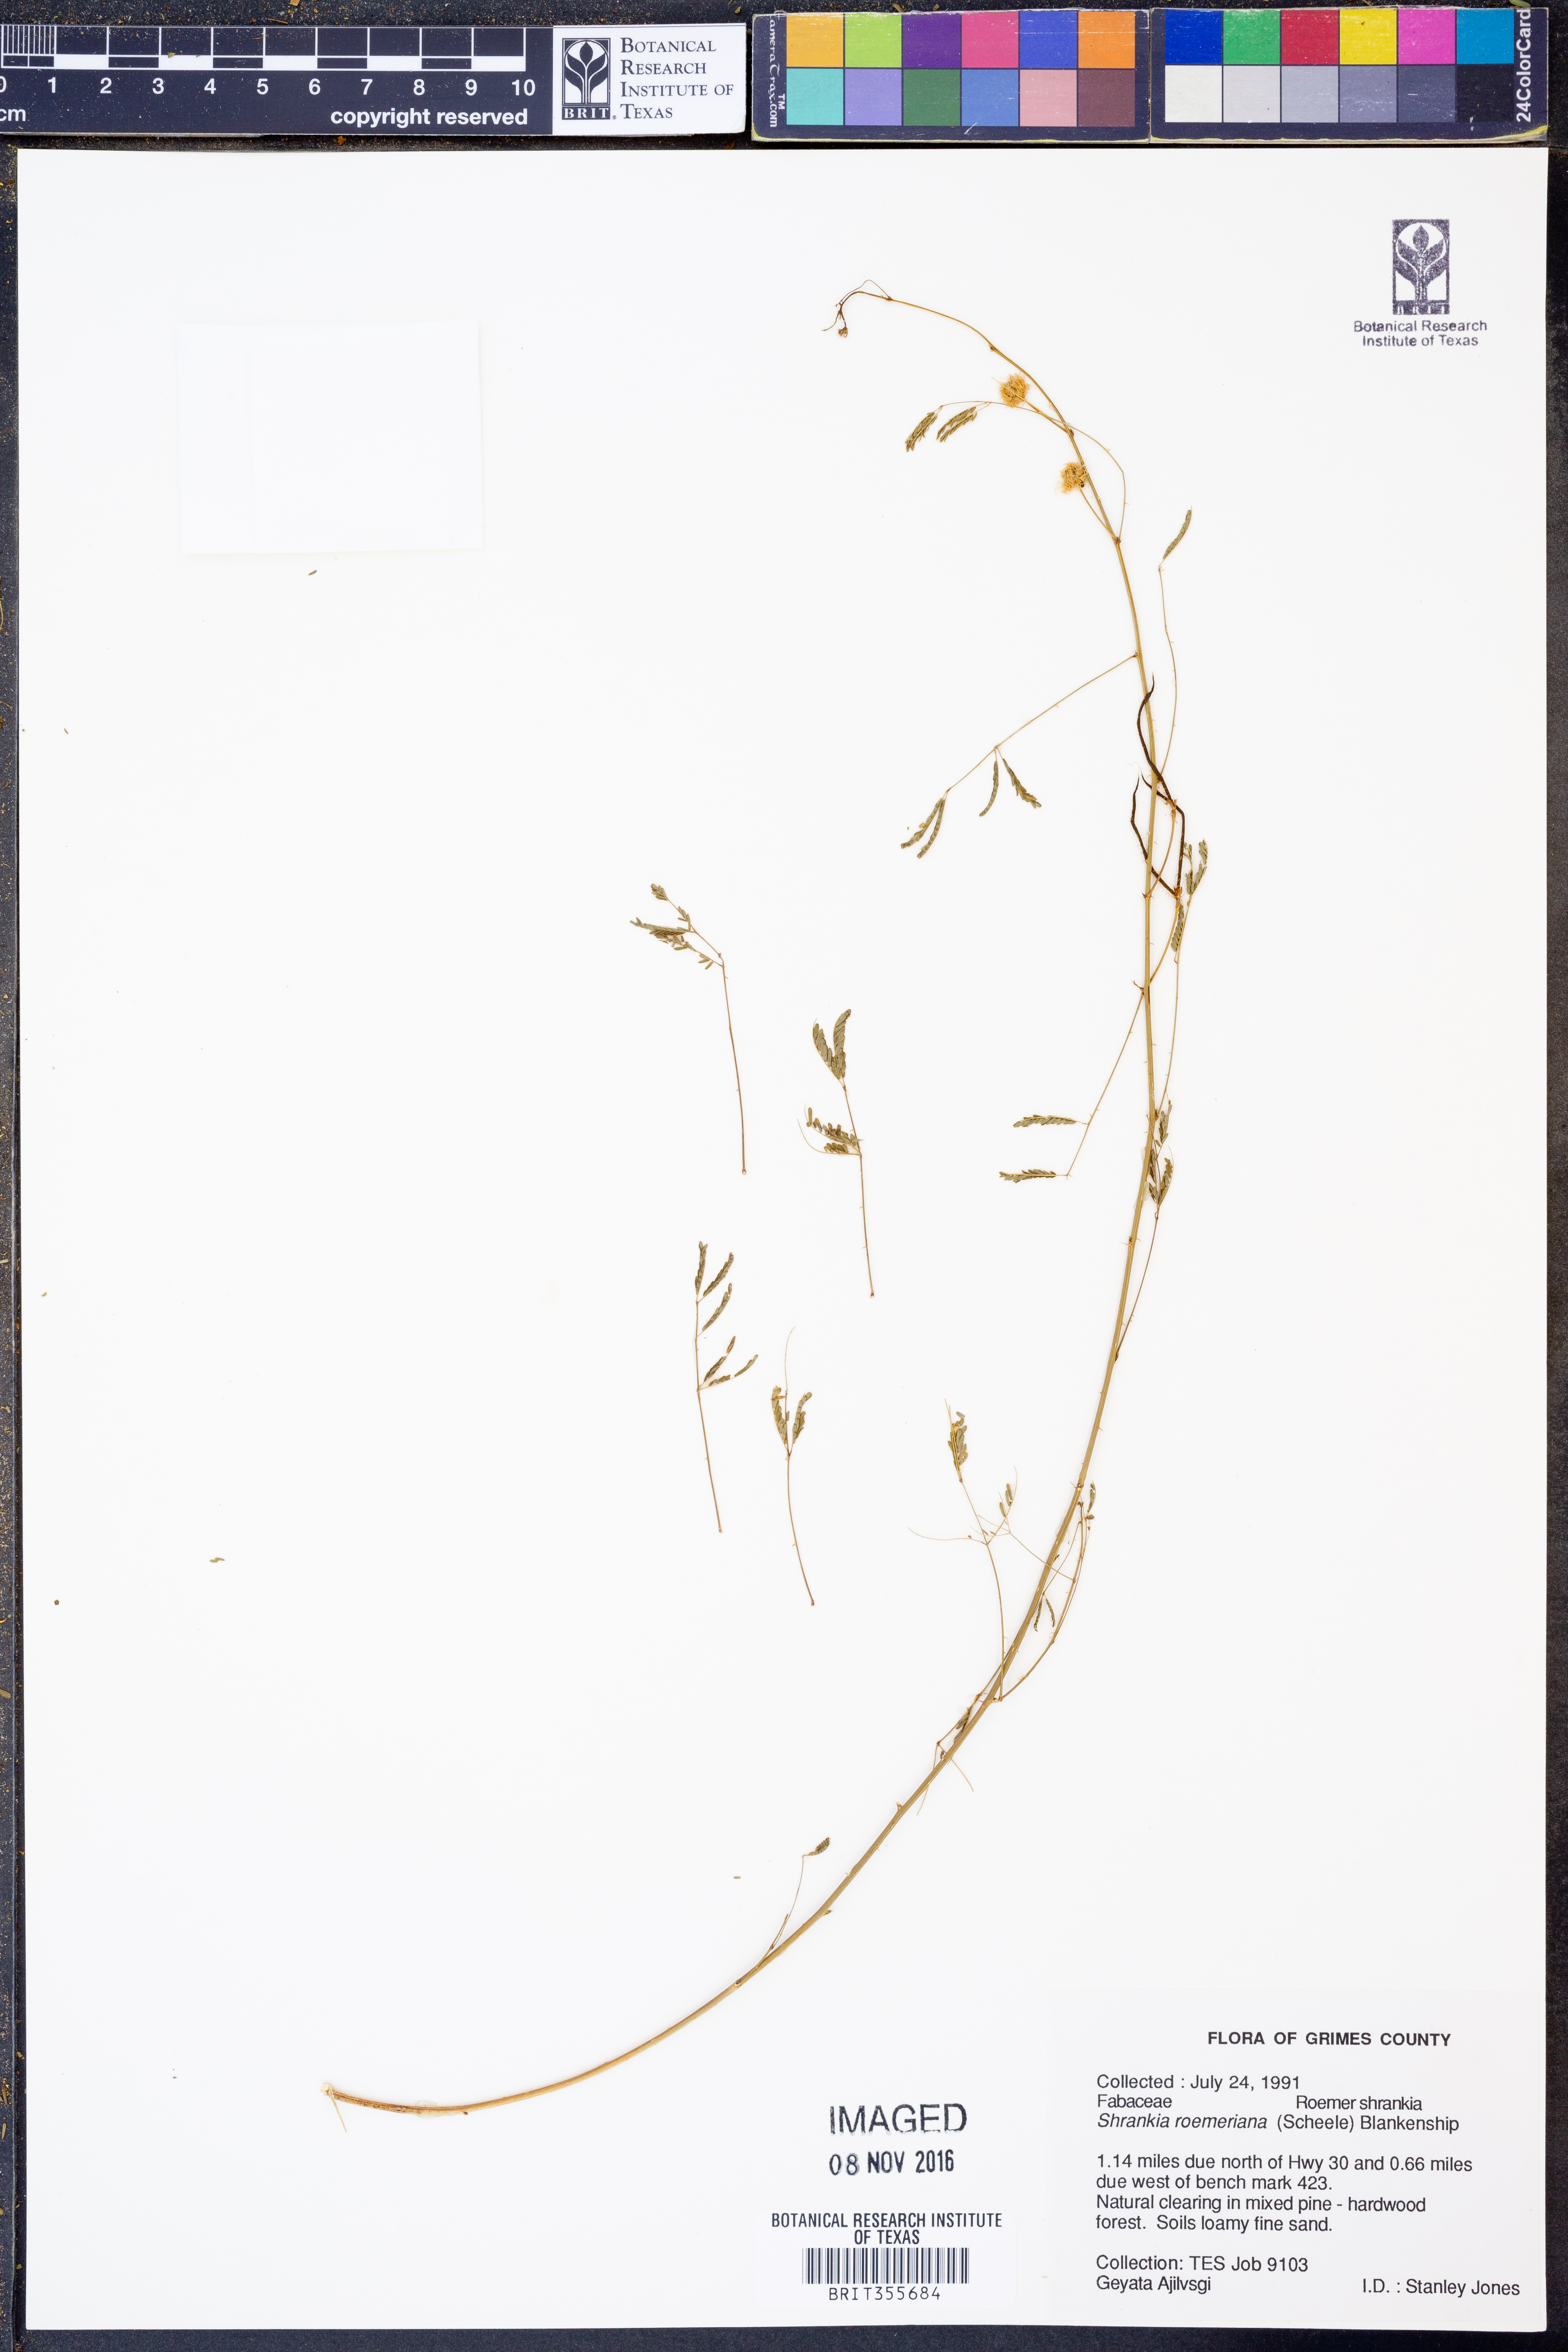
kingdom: Plantae
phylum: Tracheophyta
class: Magnoliopsida
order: Fabales
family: Fabaceae
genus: Mimosa
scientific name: Mimosa quadrivalvis
